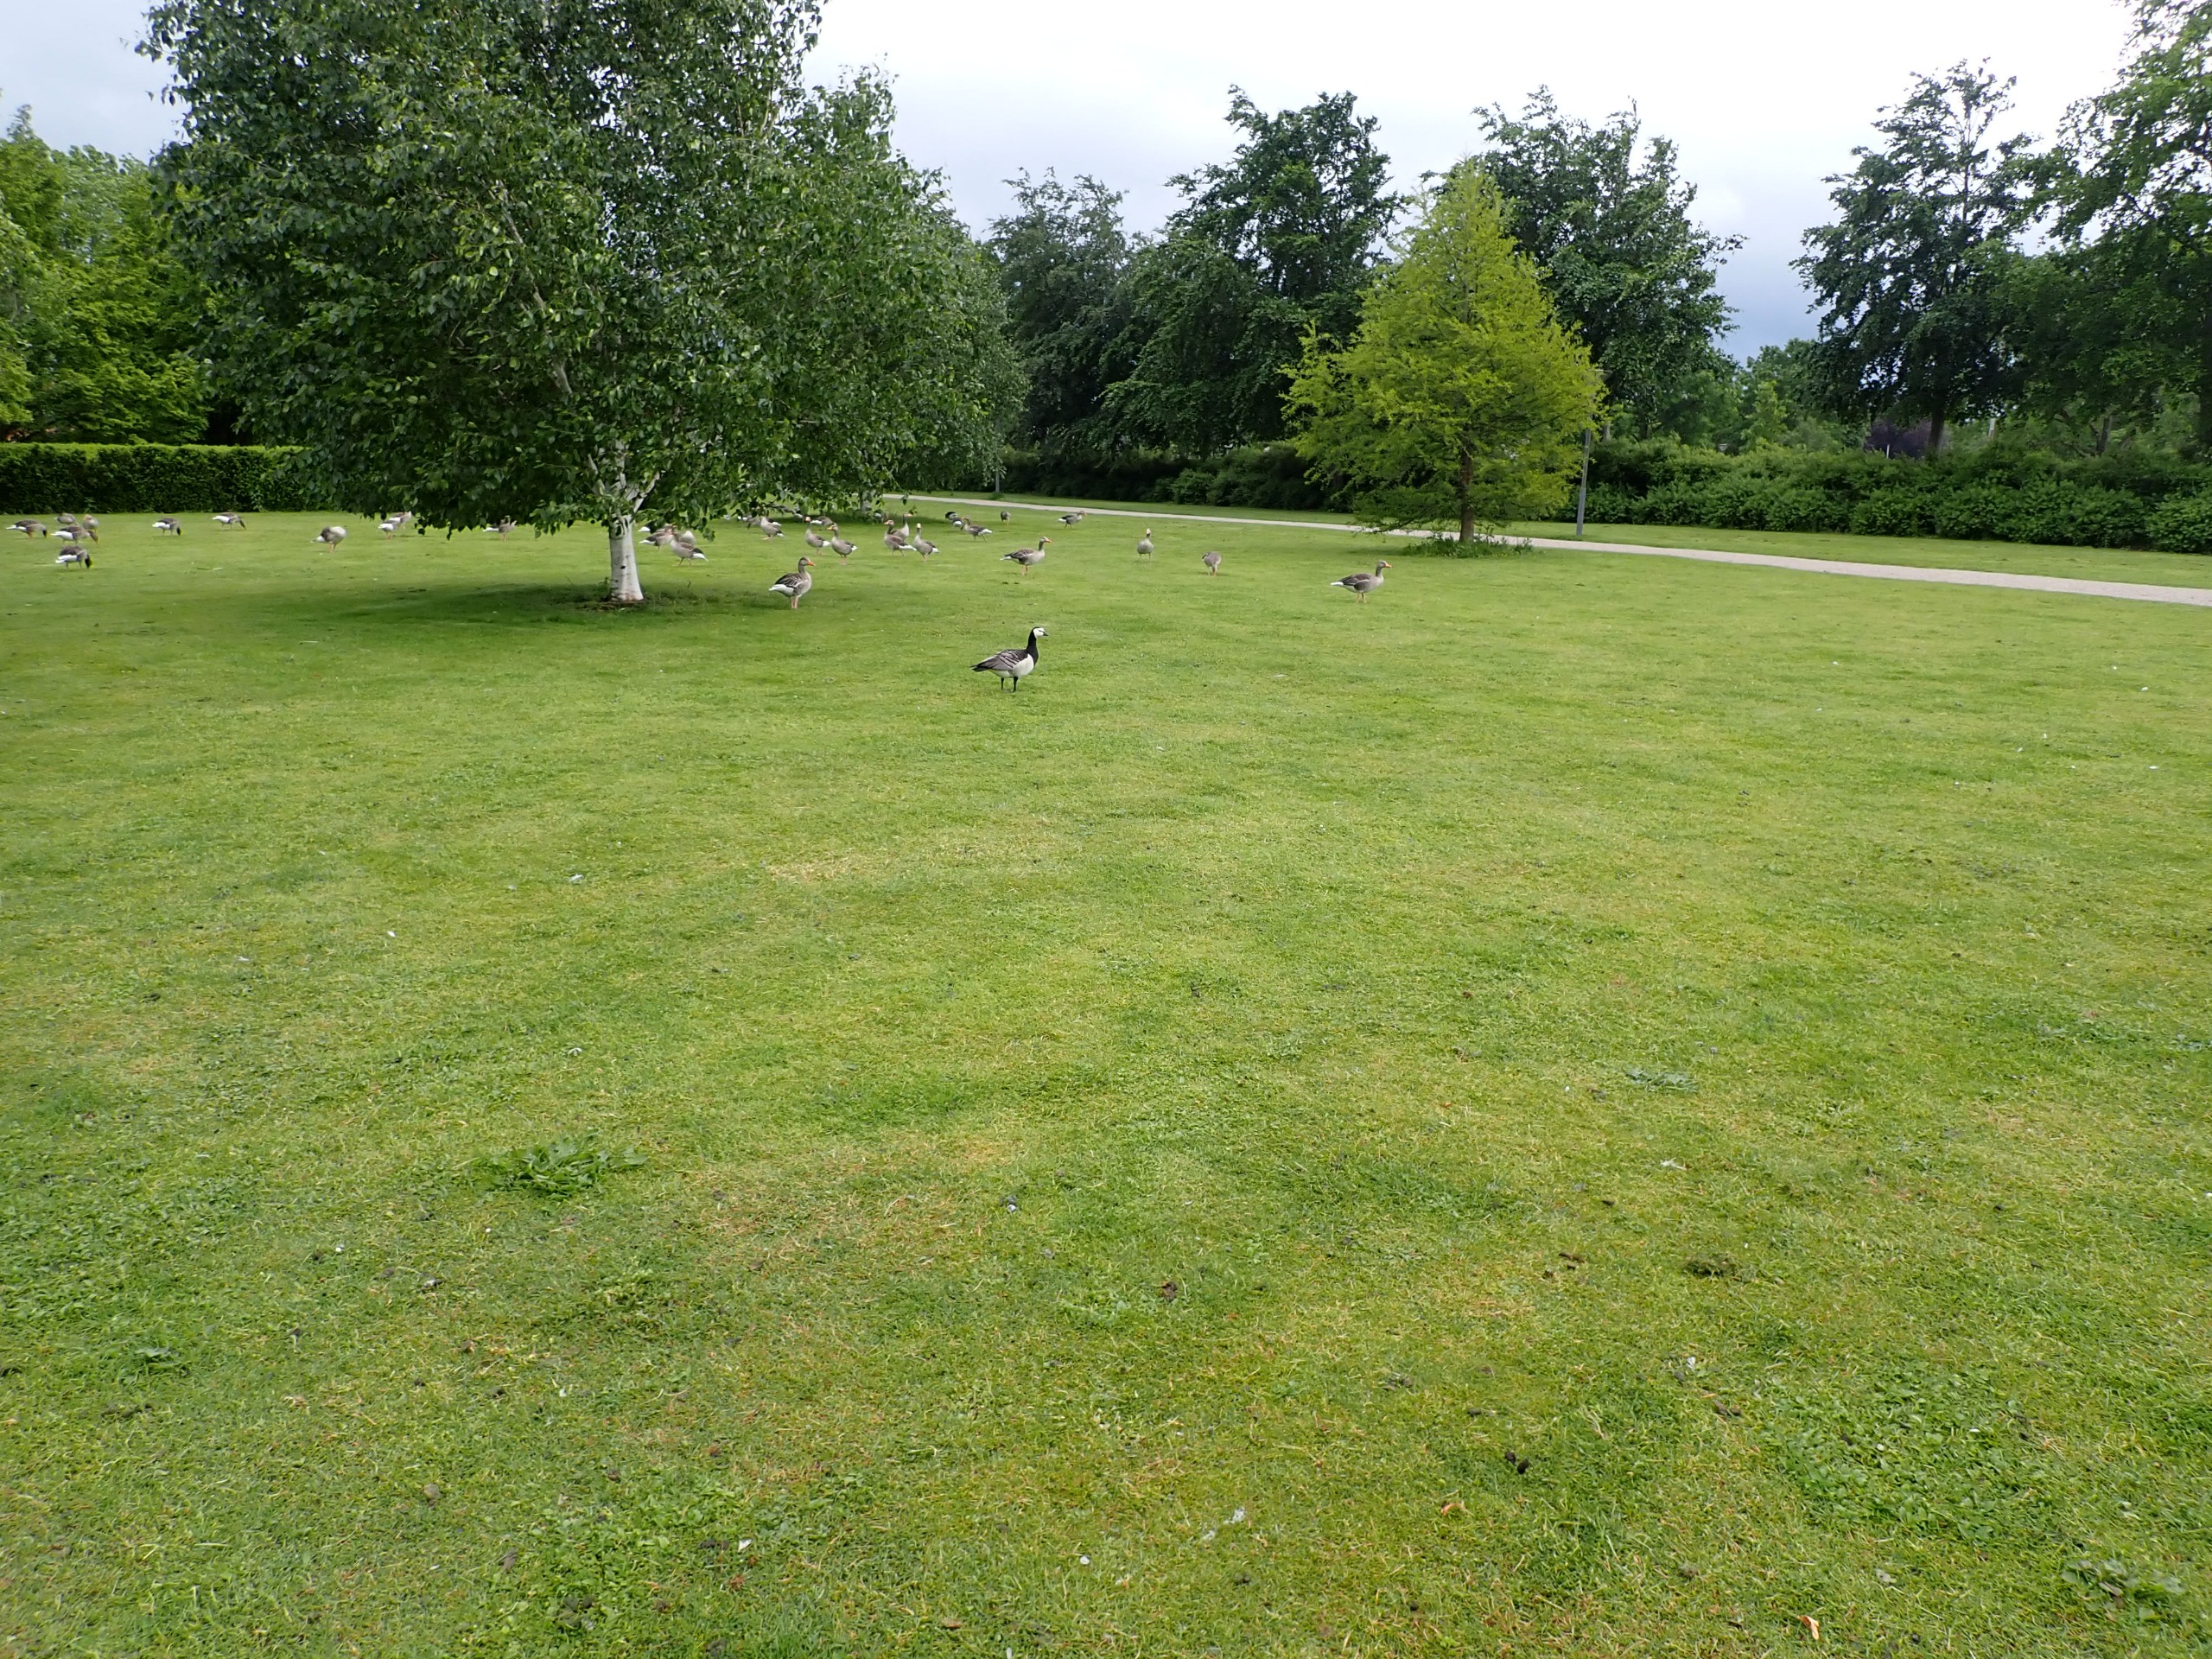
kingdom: Animalia
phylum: Chordata
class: Aves
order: Anseriformes
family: Anatidae
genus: Branta
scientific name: Branta leucopsis
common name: Bramgås
